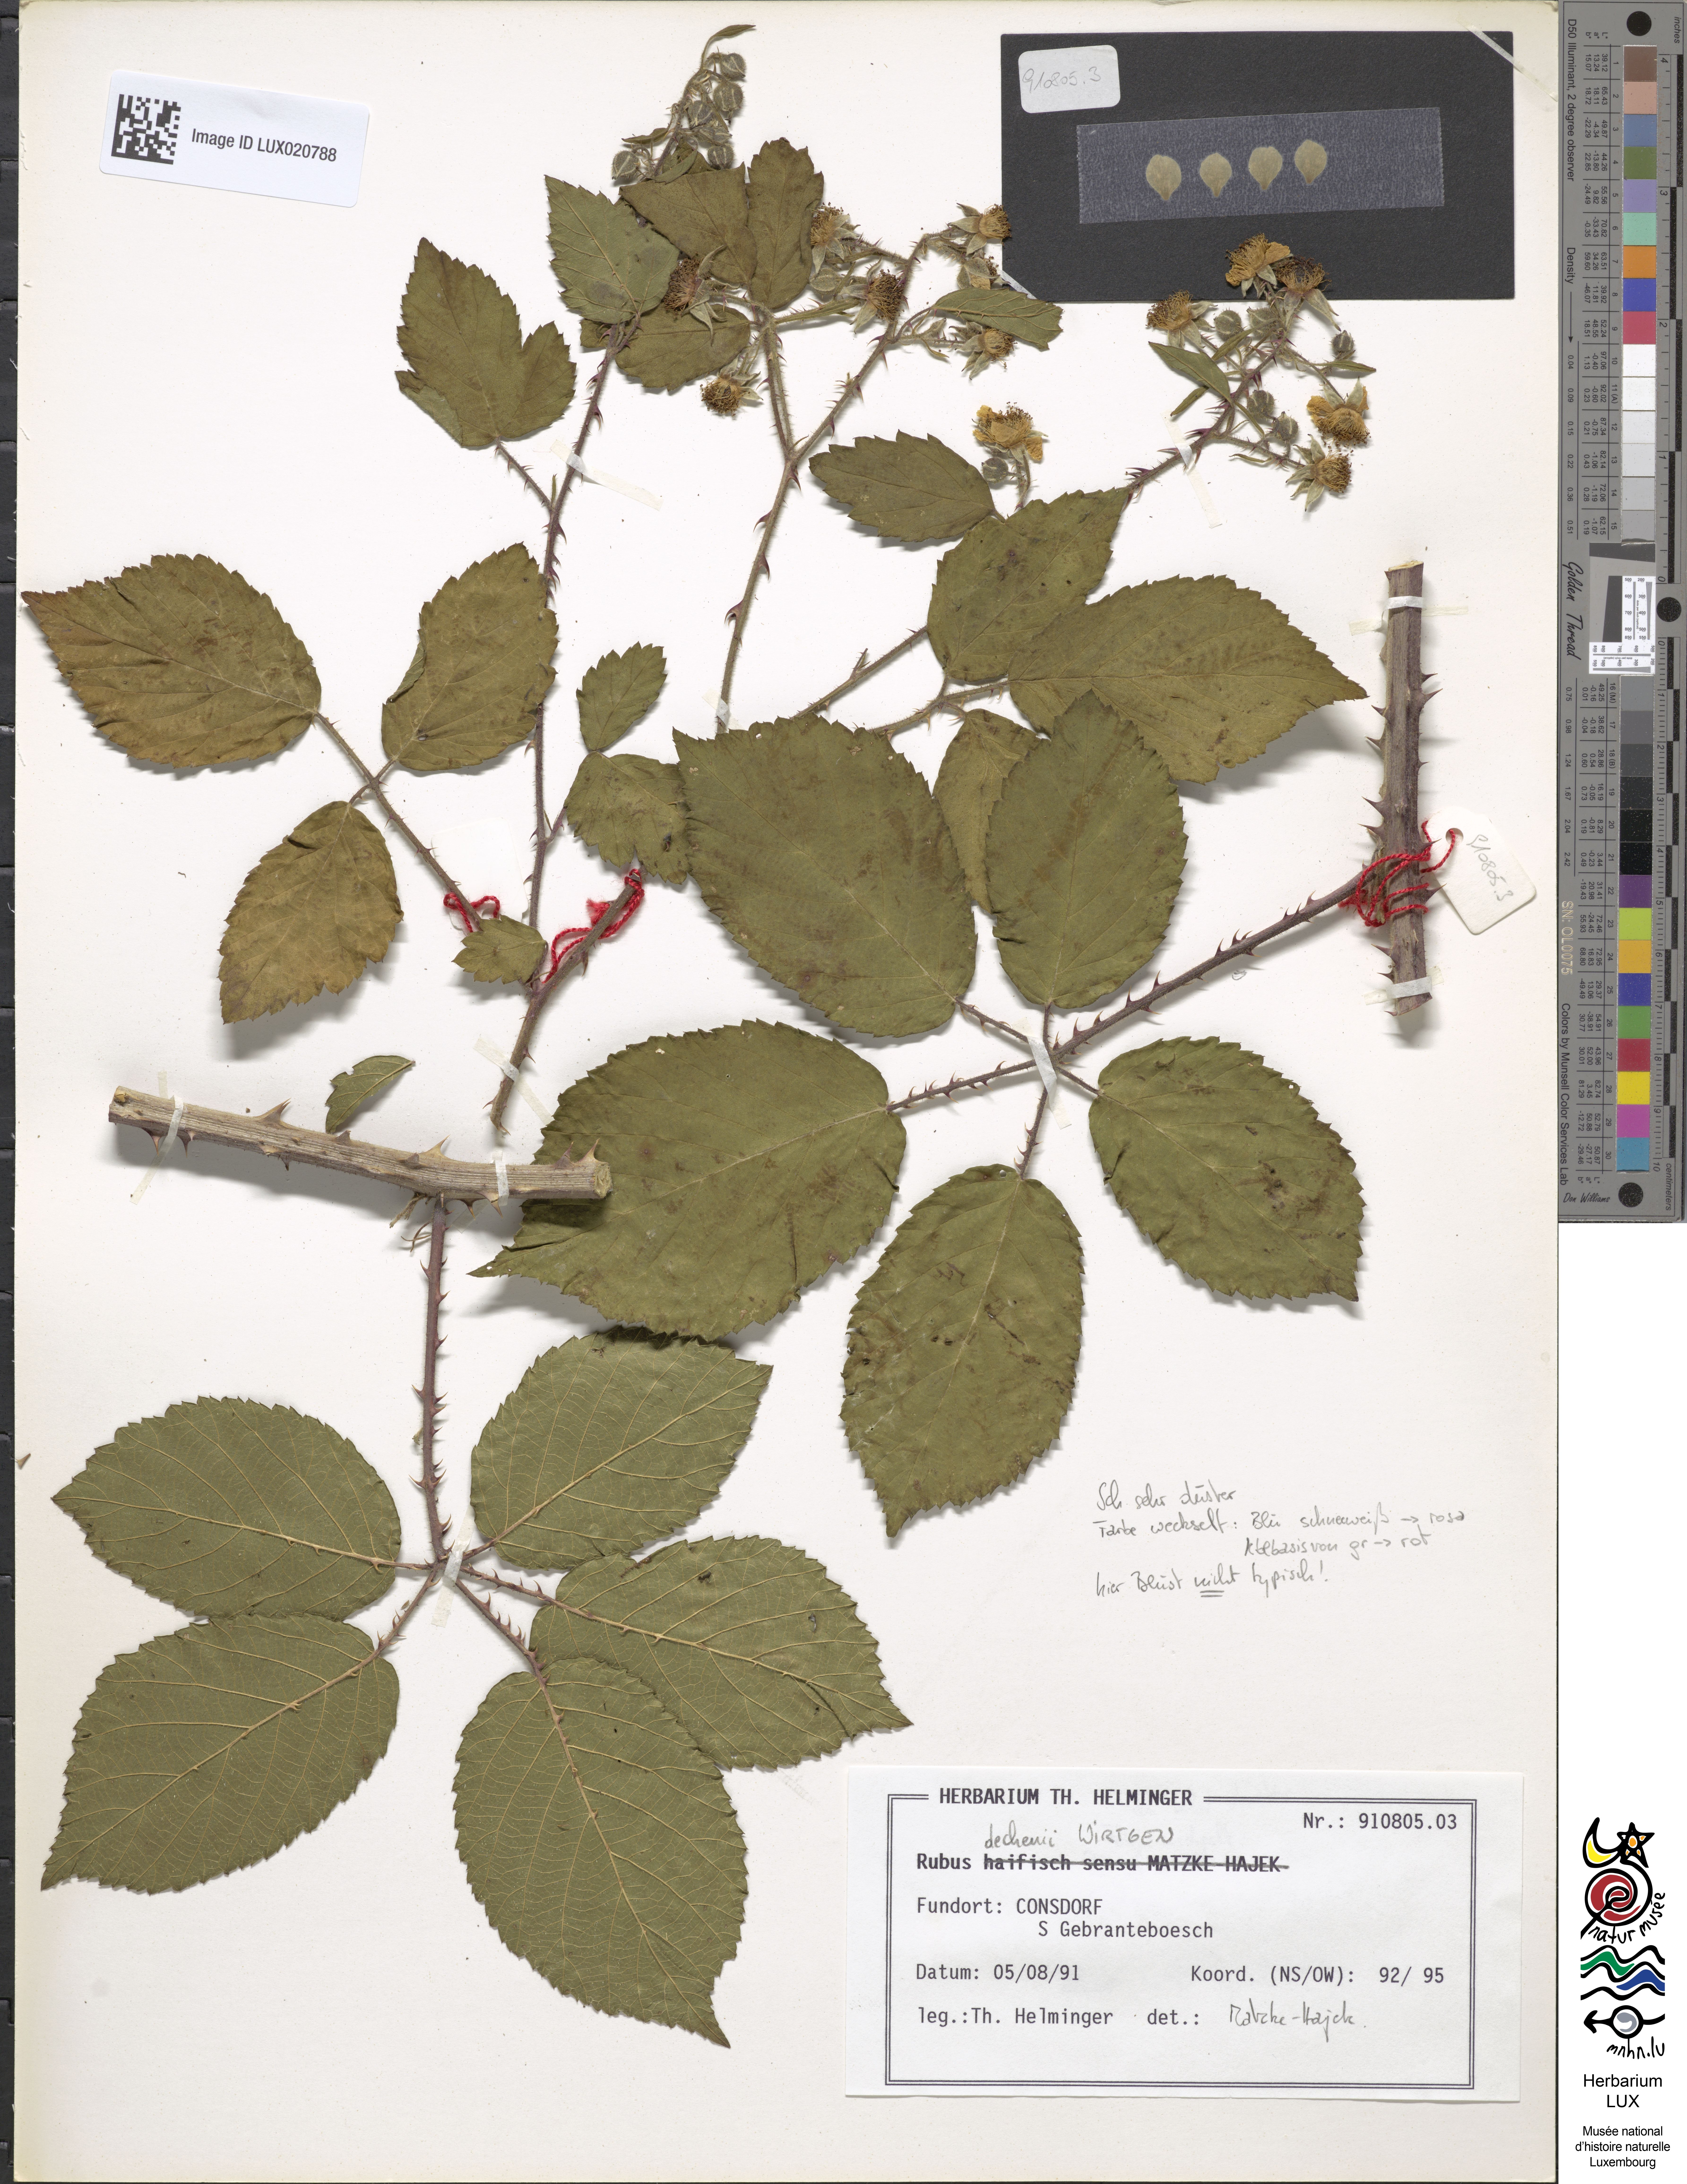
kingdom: Plantae
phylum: Tracheophyta
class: Magnoliopsida
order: Rosales
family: Rosaceae
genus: Rubus
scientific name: Rubus dechenii
